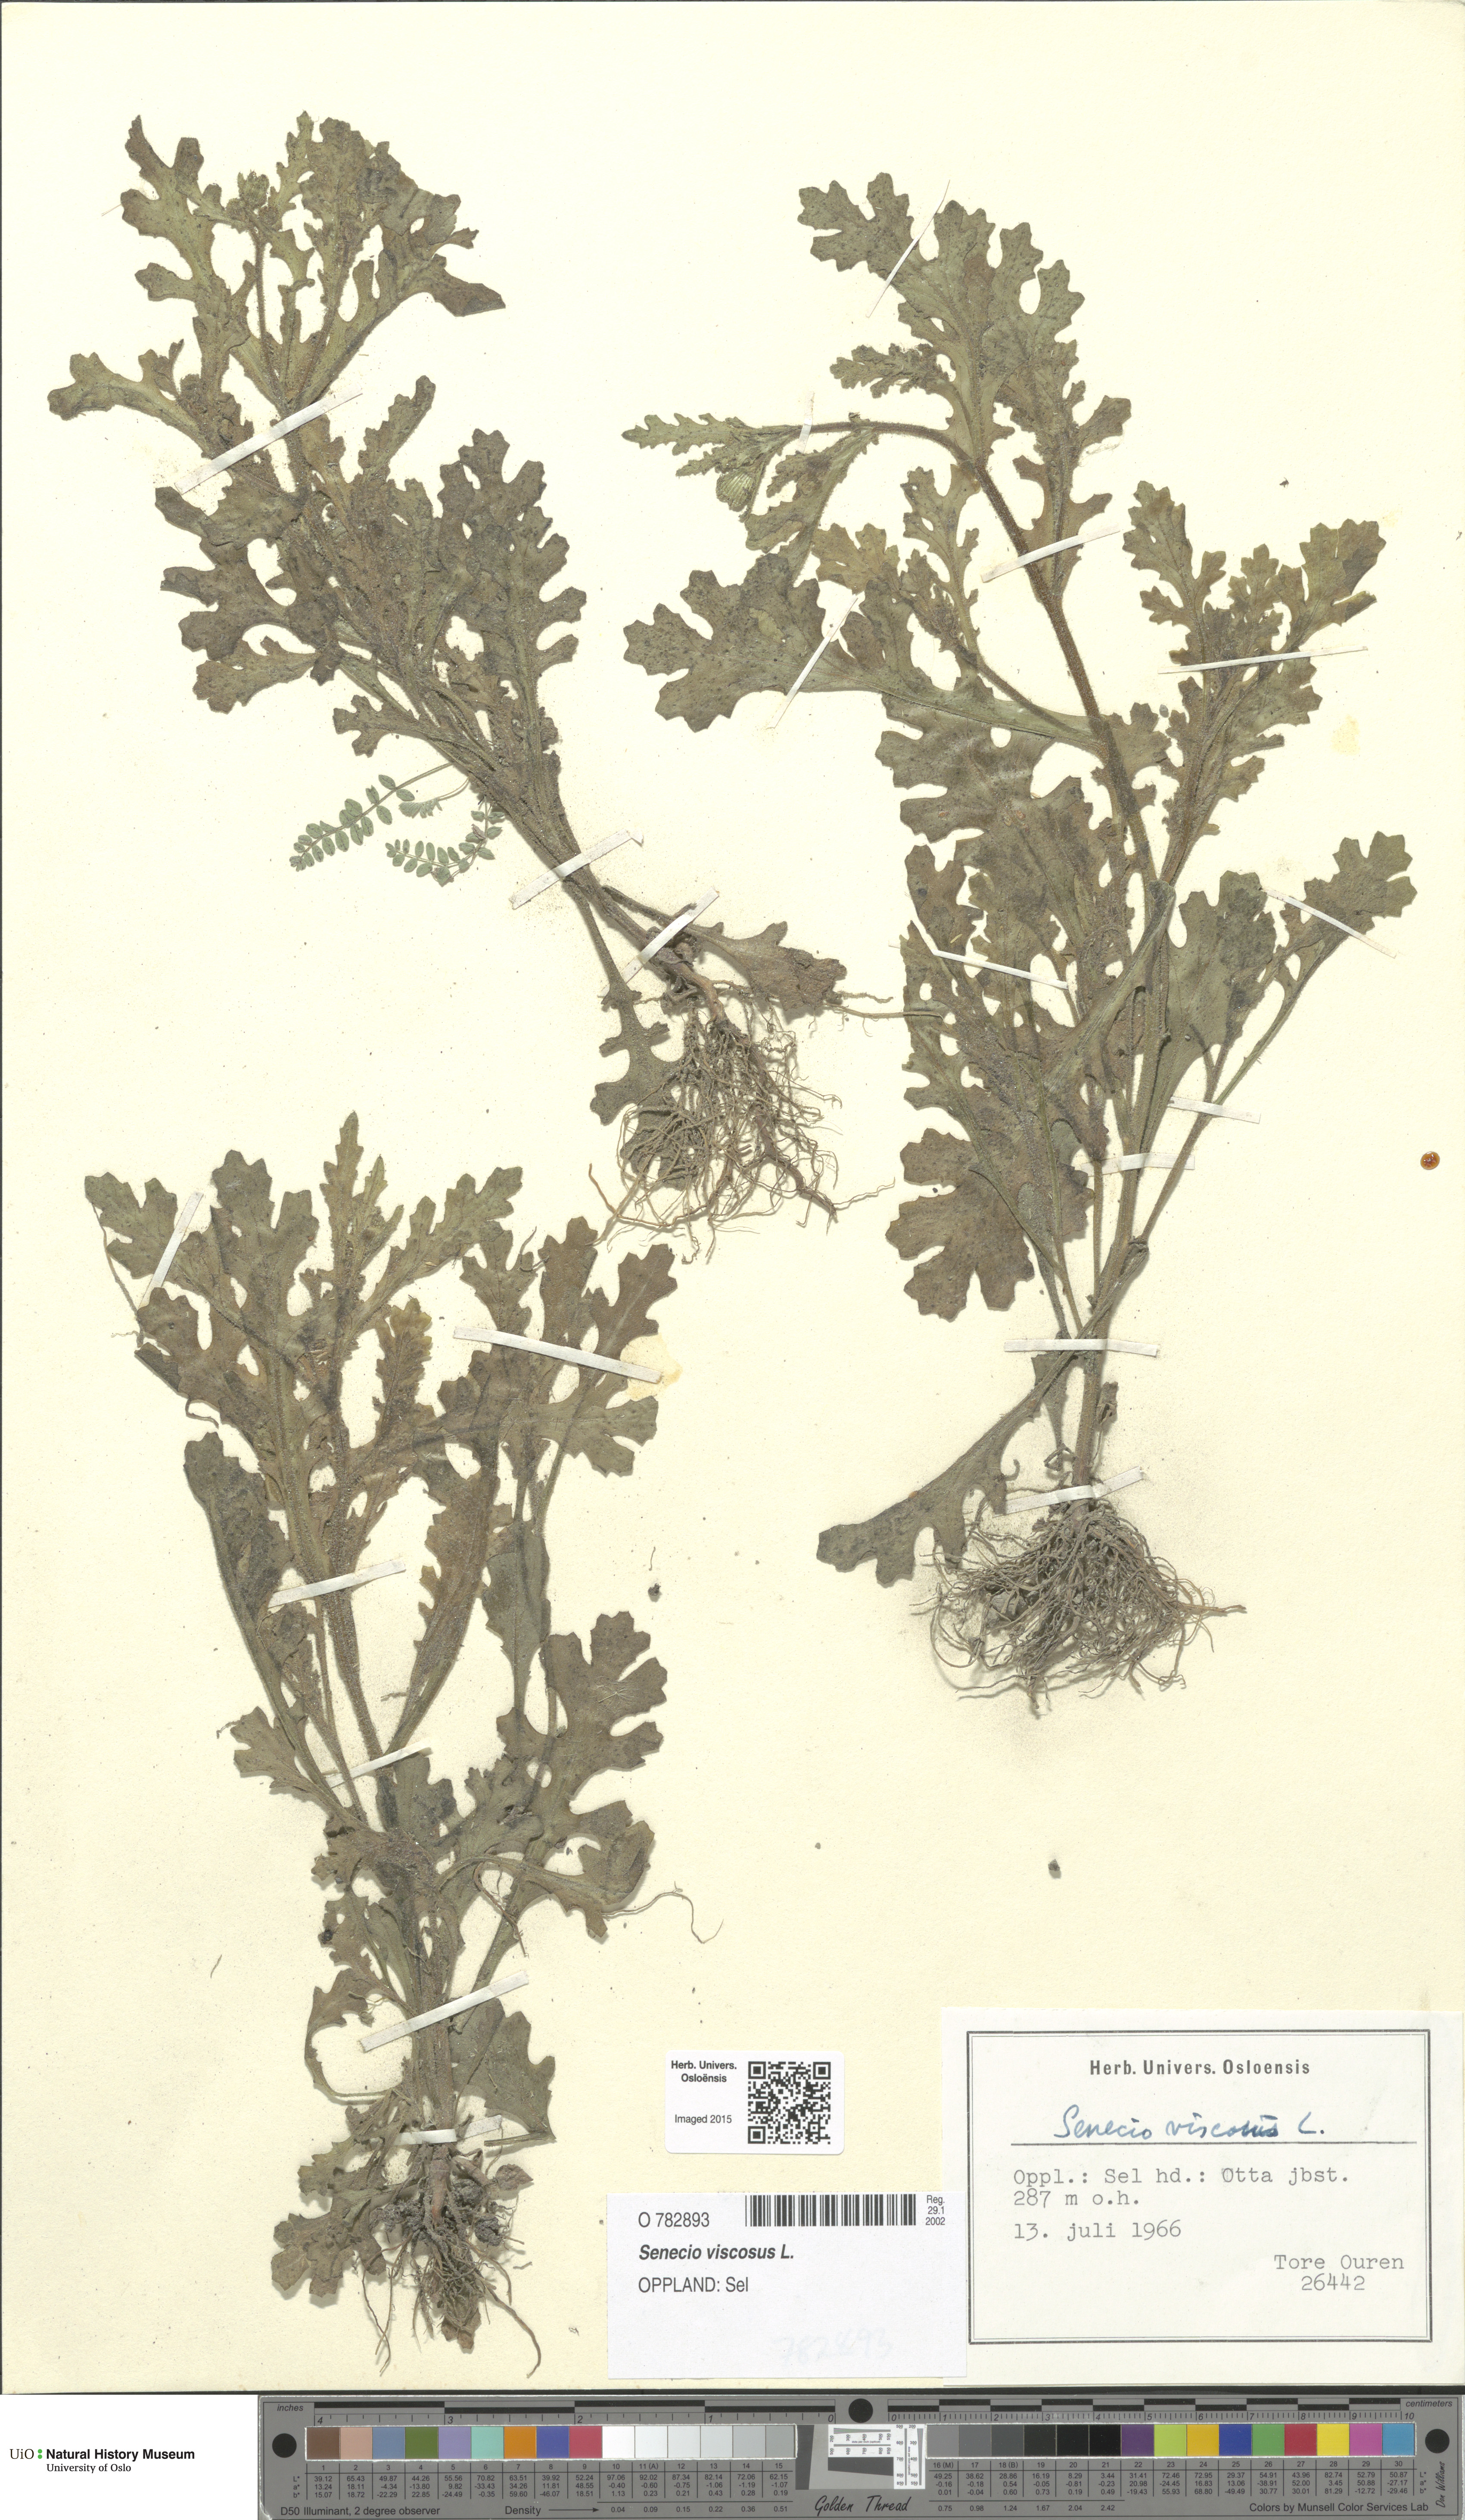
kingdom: Plantae
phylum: Tracheophyta
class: Magnoliopsida
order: Asterales
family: Asteraceae
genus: Senecio
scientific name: Senecio viscosus
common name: Sticky groundsel
